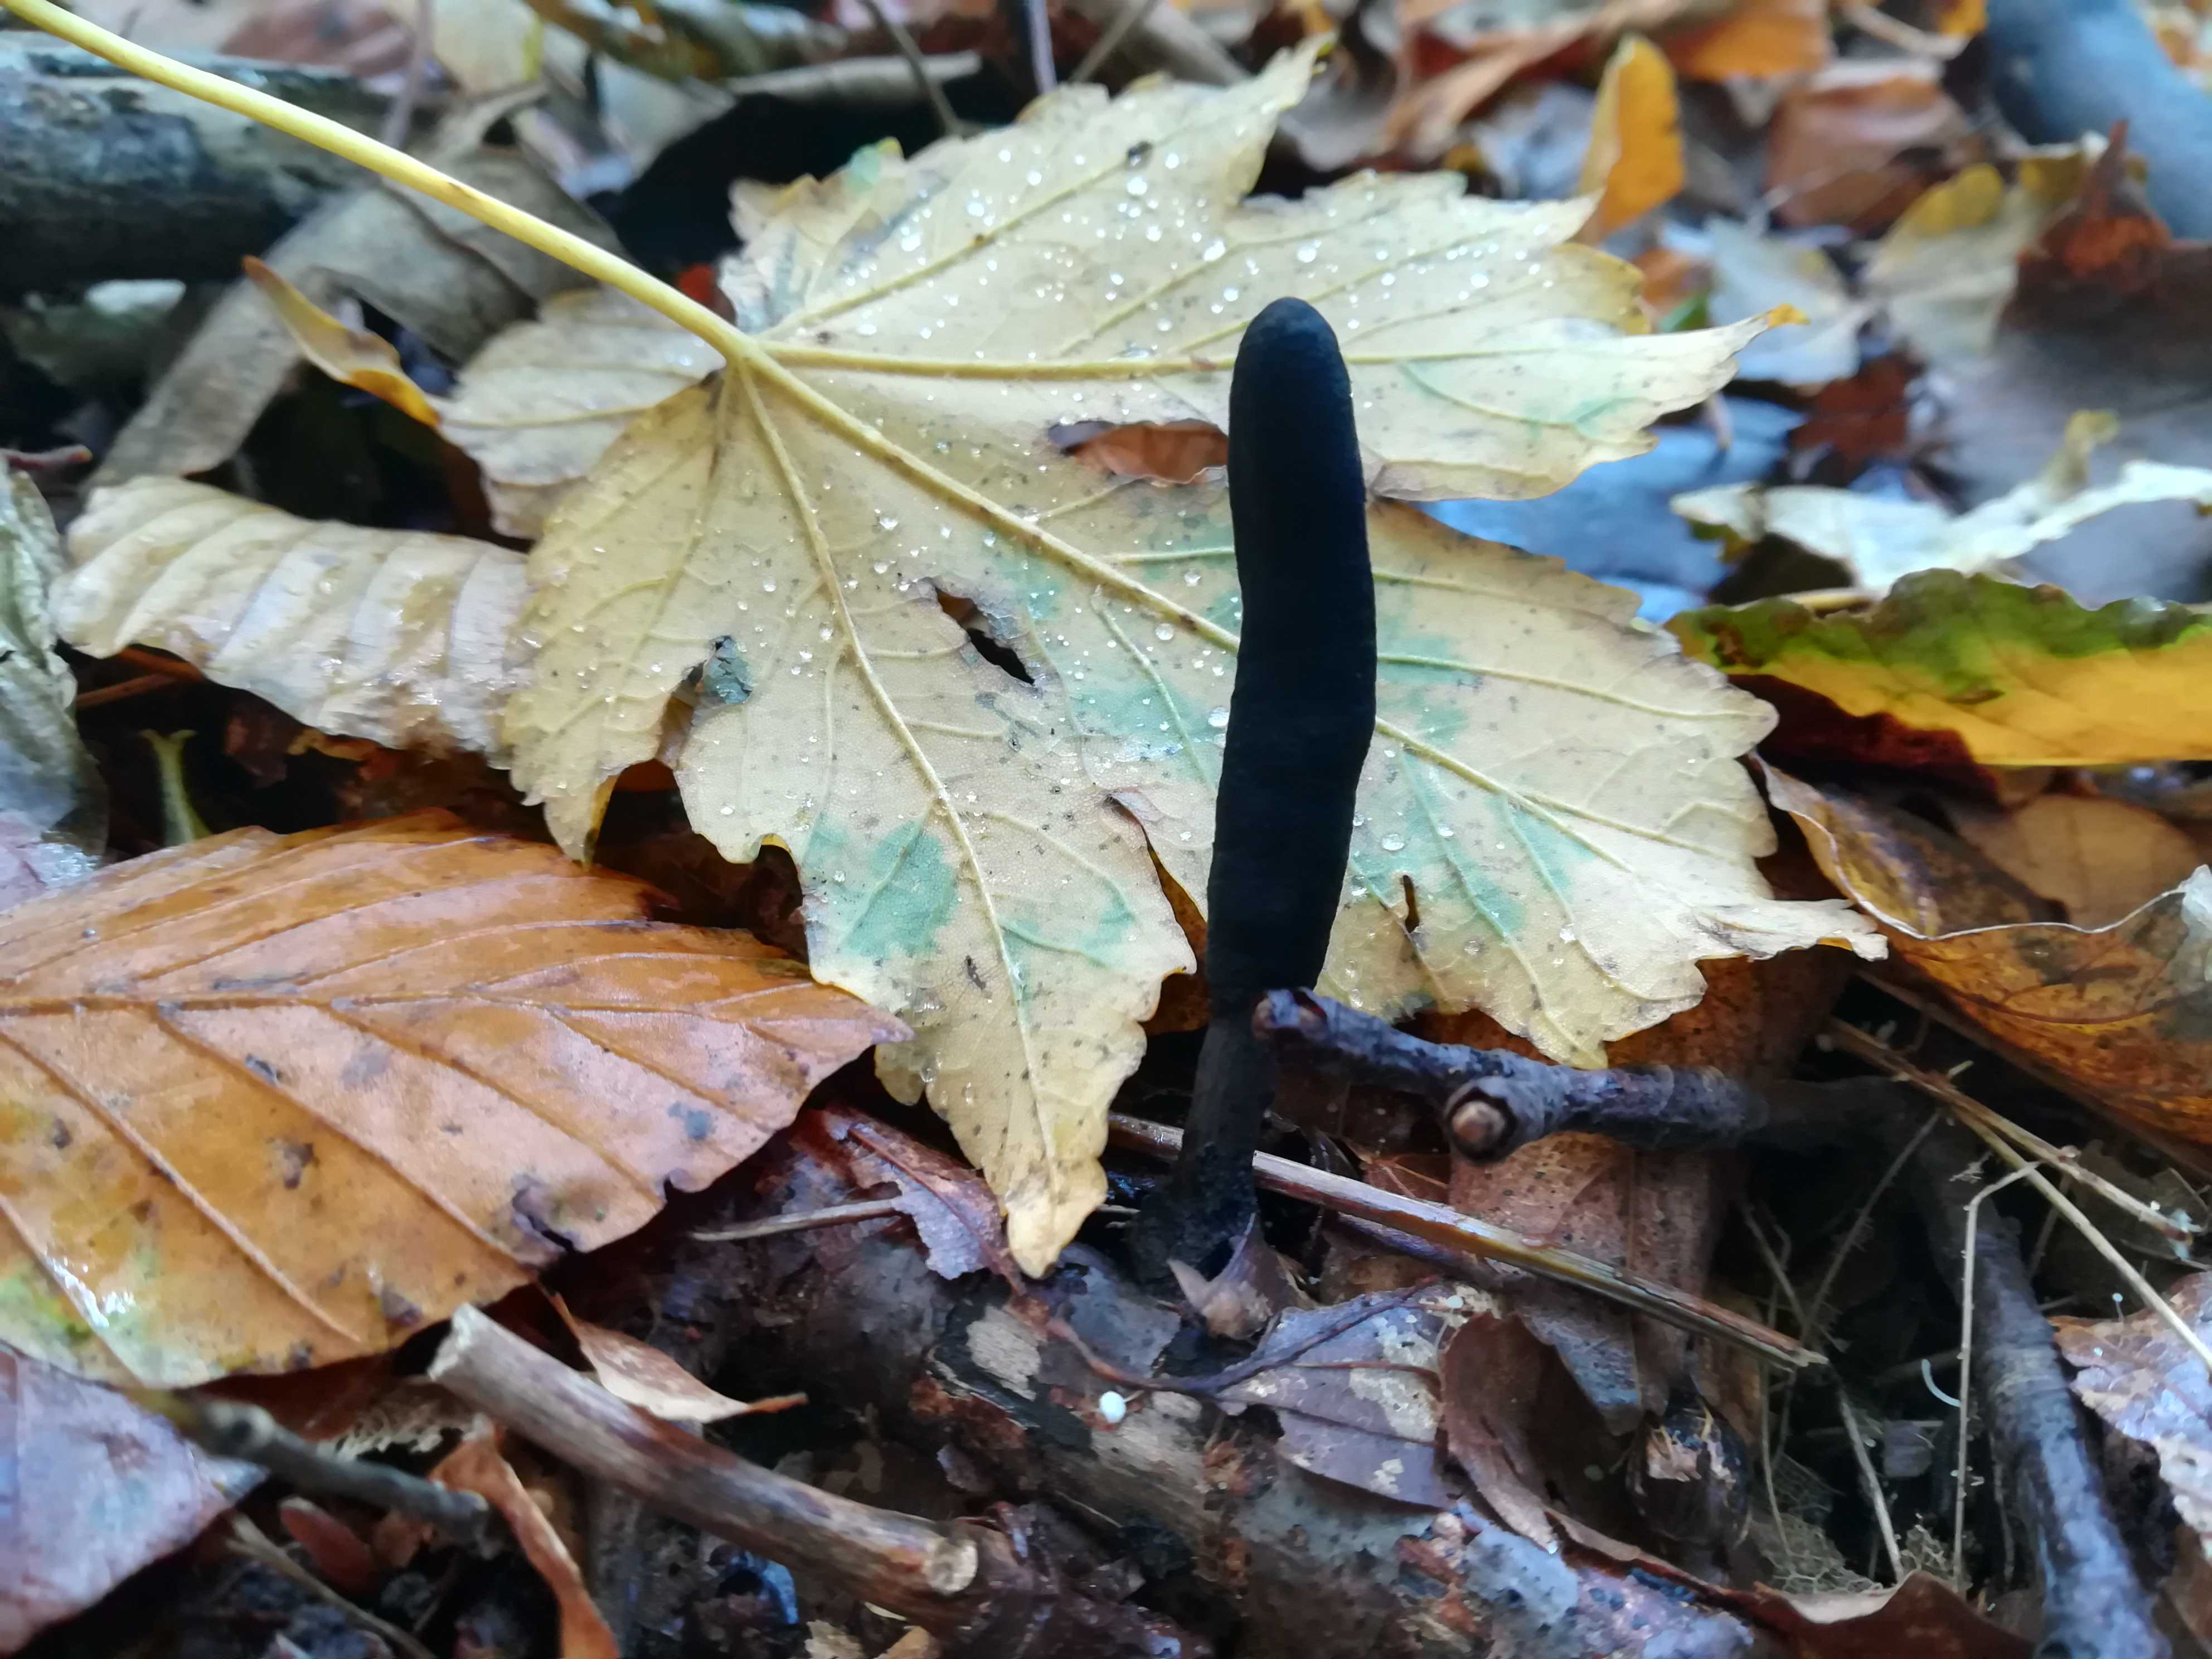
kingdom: Fungi
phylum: Ascomycota
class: Sordariomycetes
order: Xylariales
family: Xylariaceae
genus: Xylaria
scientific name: Xylaria longipes
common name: slank stødsvamp
